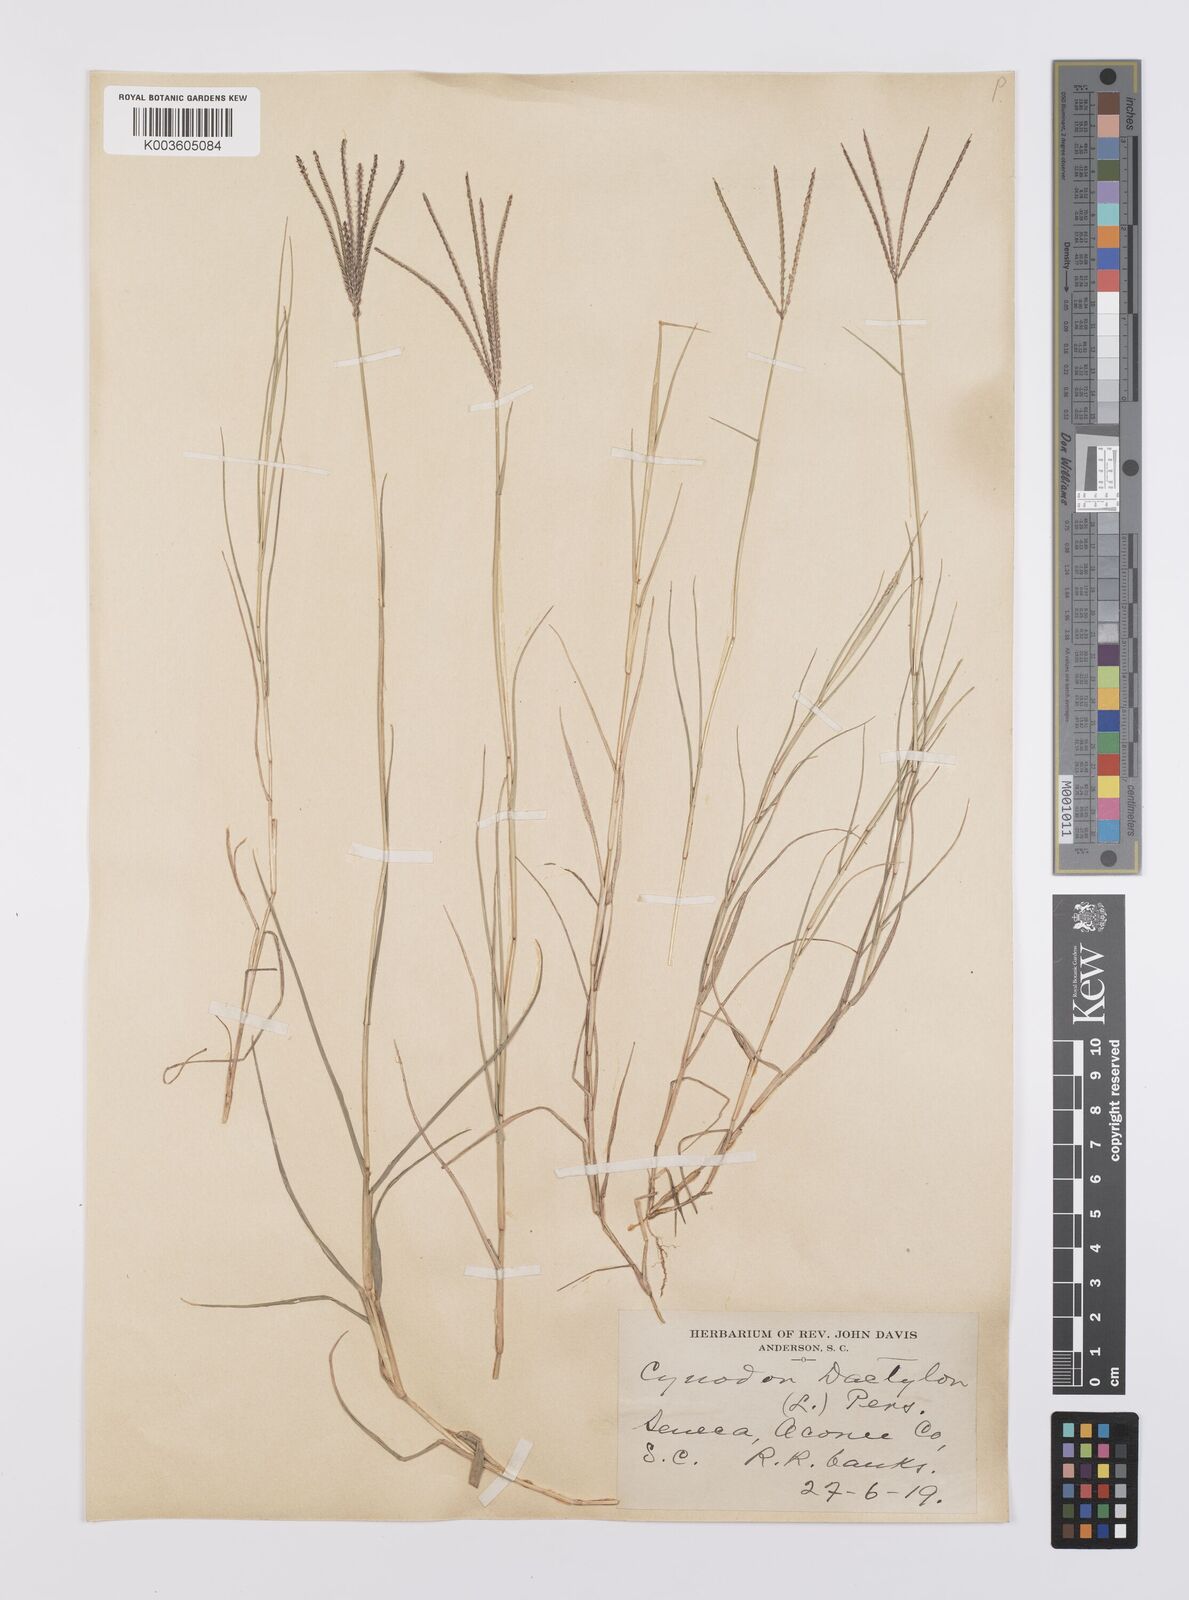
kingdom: Plantae
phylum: Tracheophyta
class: Liliopsida
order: Poales
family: Poaceae
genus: Cynodon
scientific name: Cynodon dactylon
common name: Bermuda grass
